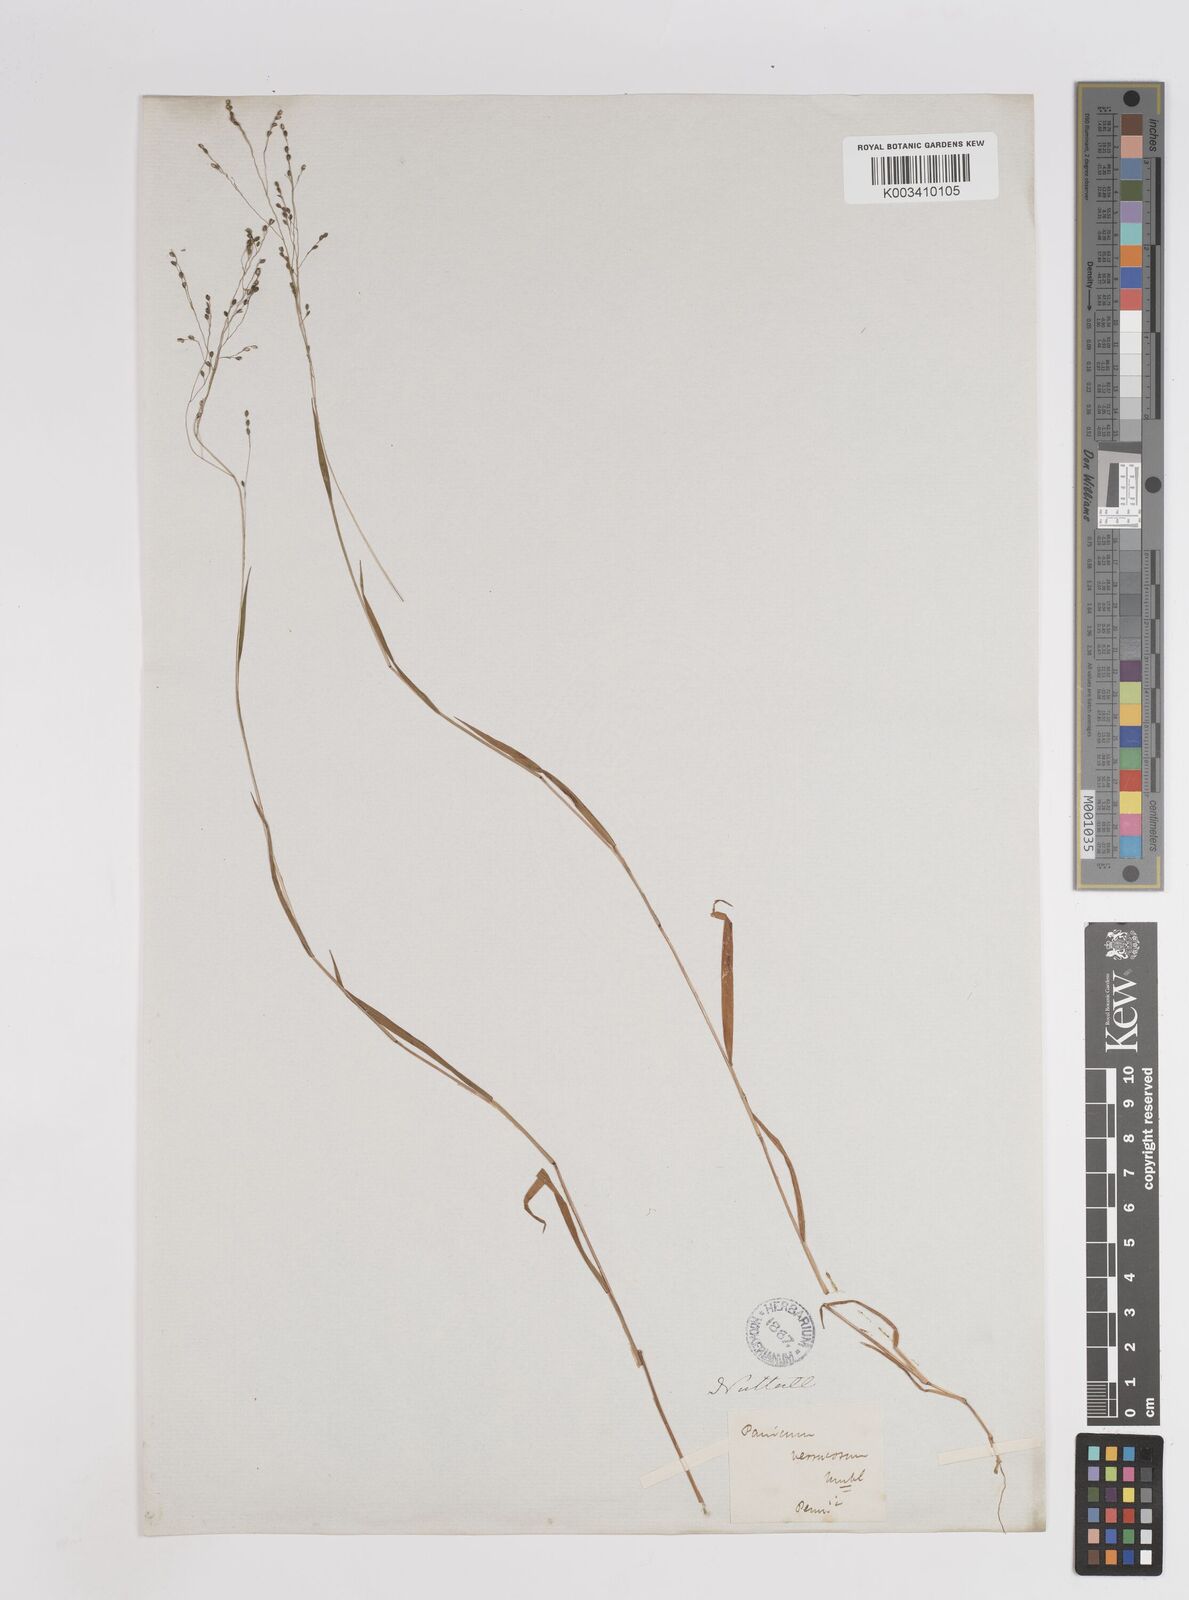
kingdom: Plantae
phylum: Tracheophyta
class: Liliopsida
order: Poales
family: Poaceae
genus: Kellochloa
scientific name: Kellochloa verrucosa
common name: Warty panic grass
